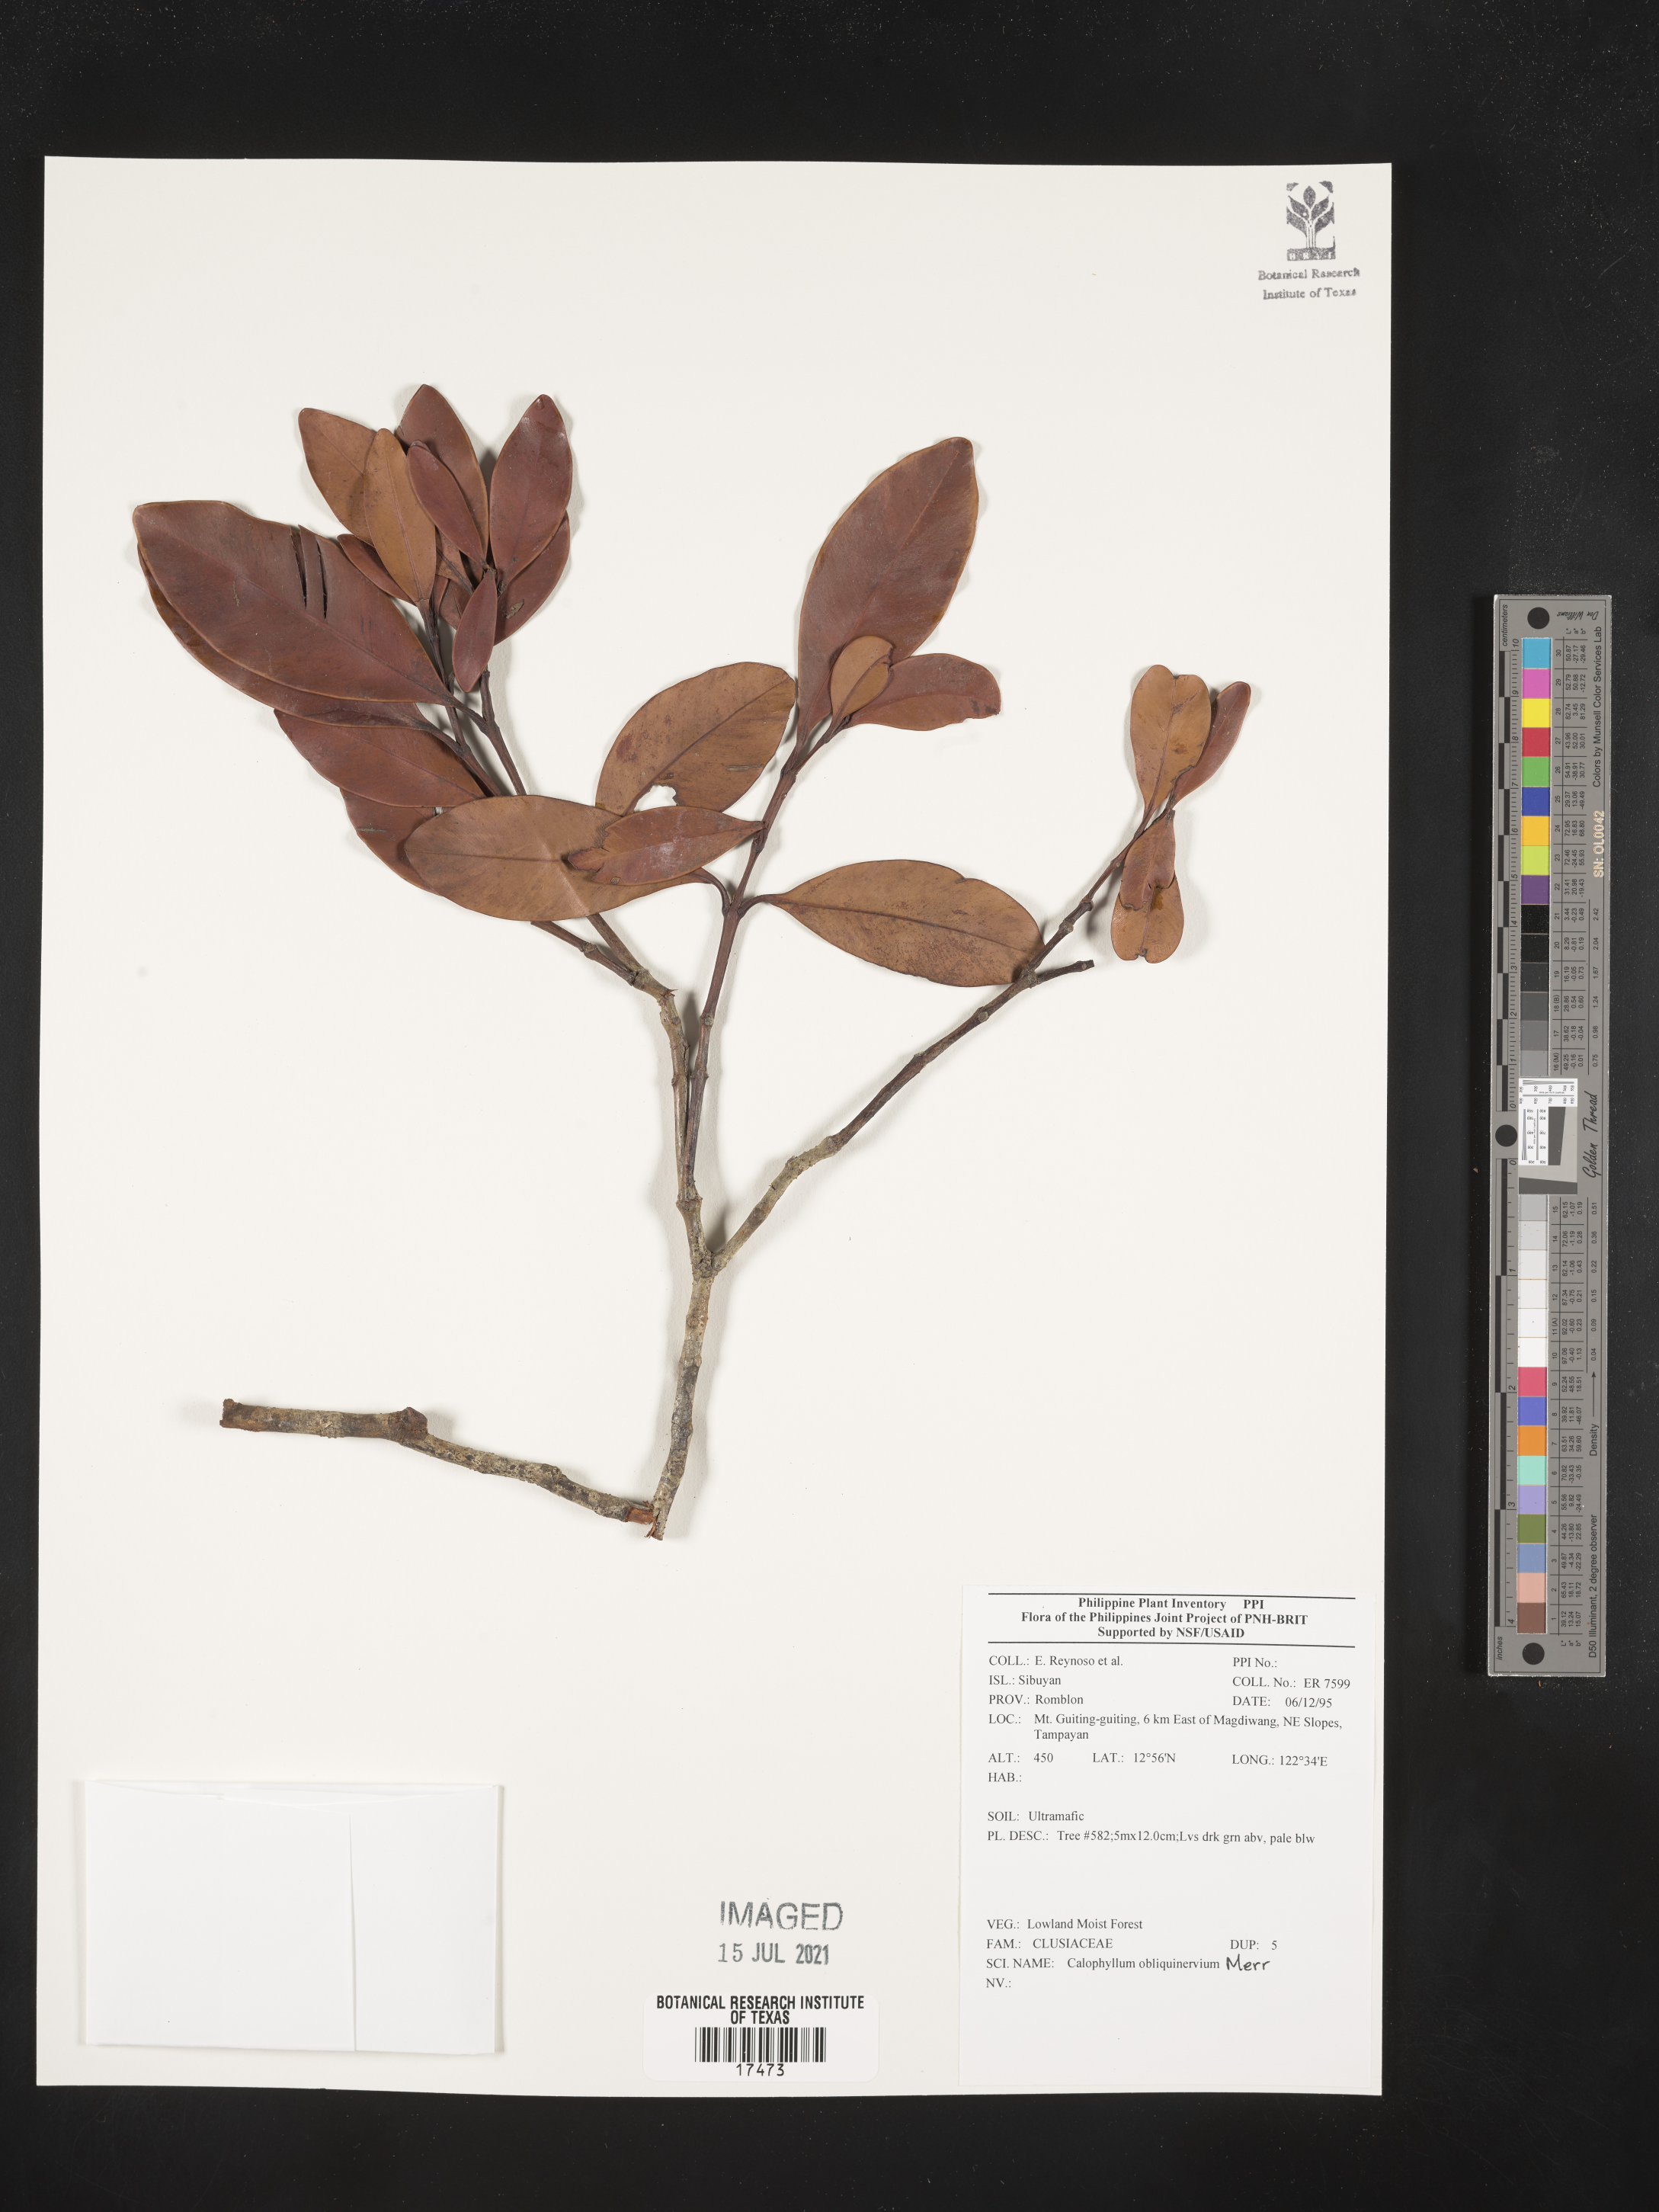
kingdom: Plantae
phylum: Tracheophyta
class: Magnoliopsida
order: Malpighiales
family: Calophyllaceae
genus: Calophyllum
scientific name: Calophyllum obliquinervium
